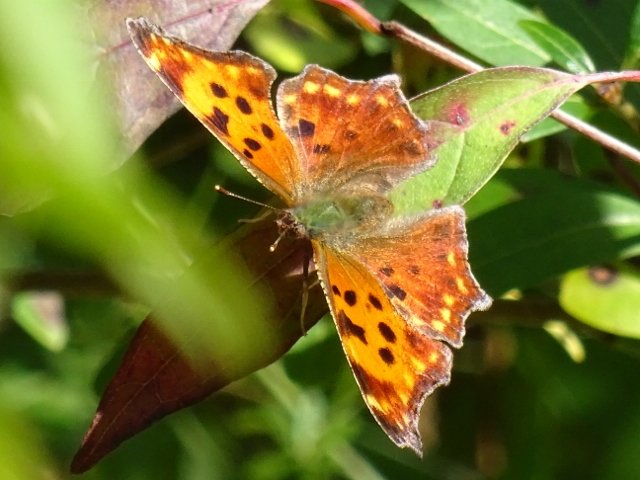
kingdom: Animalia
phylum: Arthropoda
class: Insecta
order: Lepidoptera
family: Nymphalidae
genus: Polygonia
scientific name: Polygonia comma
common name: Eastern Comma
